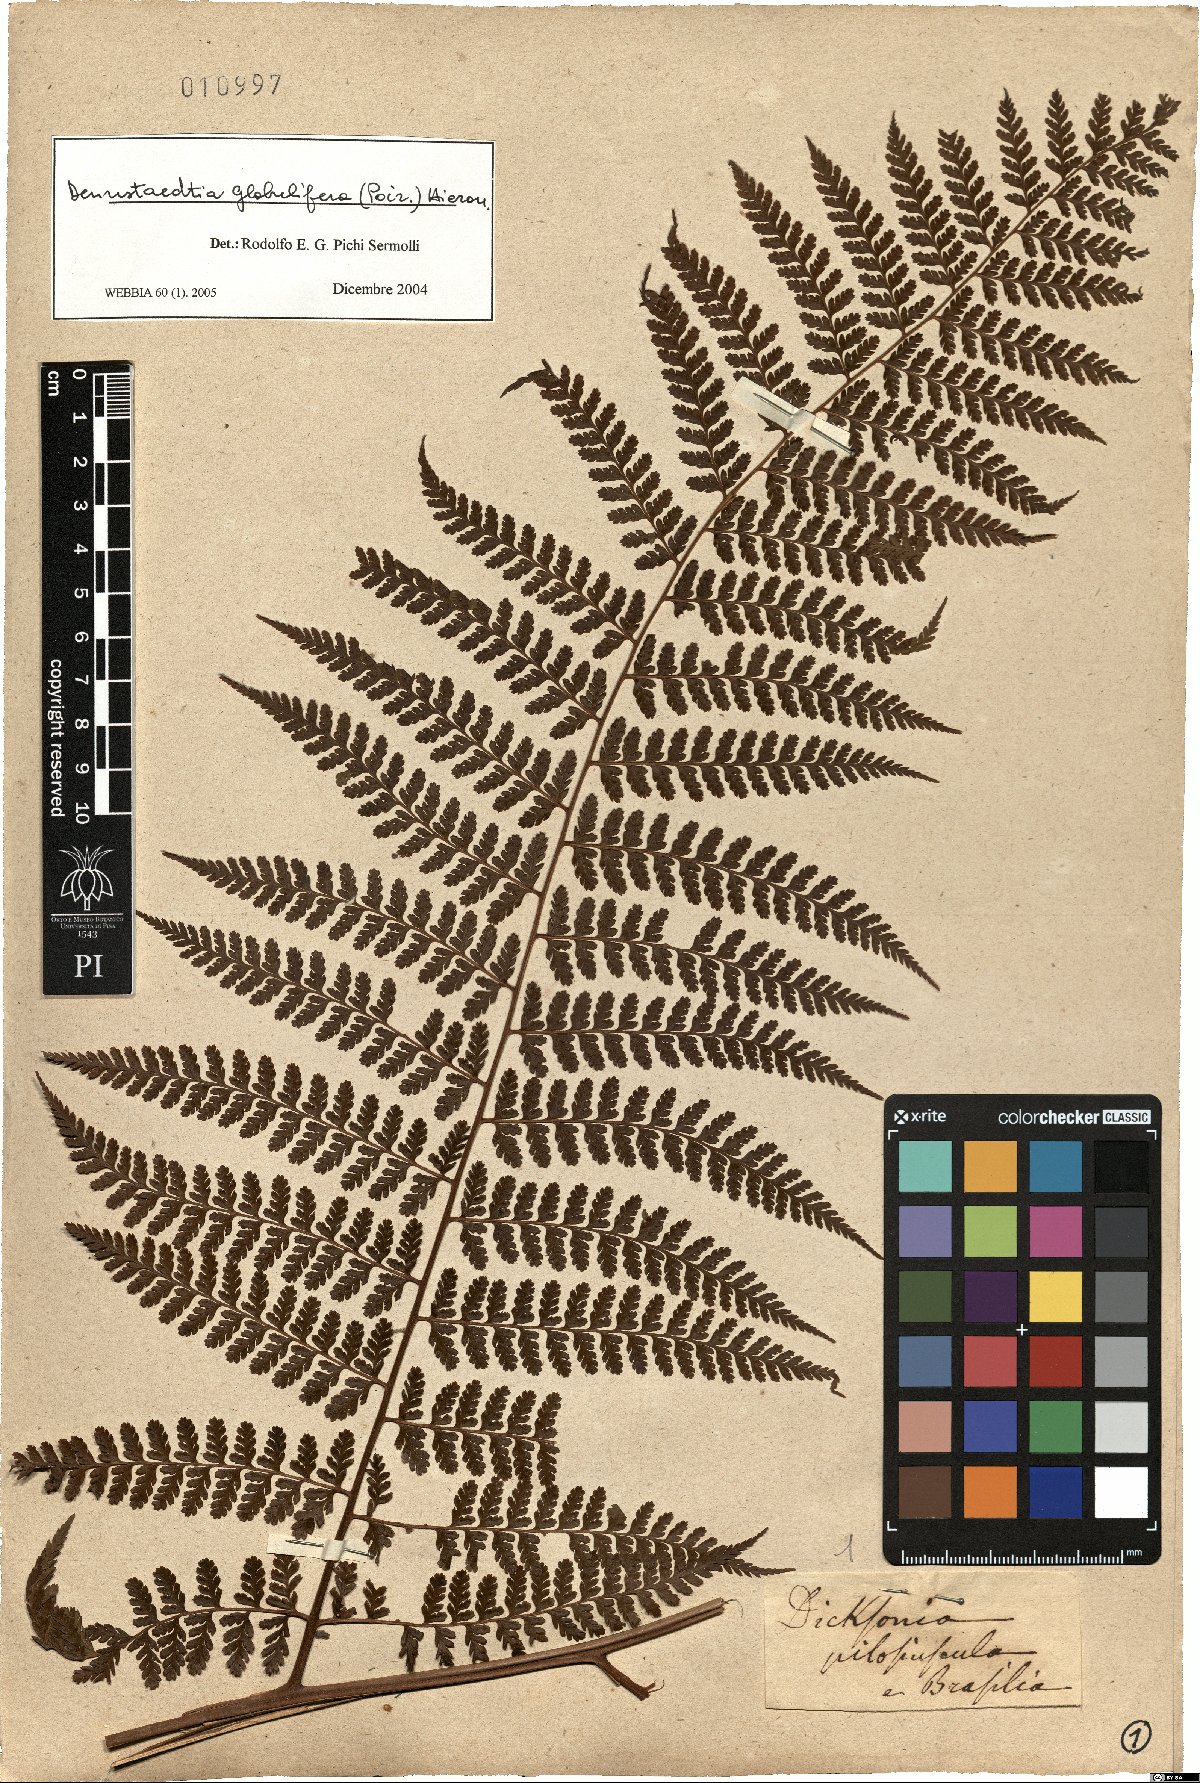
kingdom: Plantae
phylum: Tracheophyta
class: Polypodiopsida
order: Polypodiales
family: Dennstaedtiaceae
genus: Mucura
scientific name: Mucura globulifera
